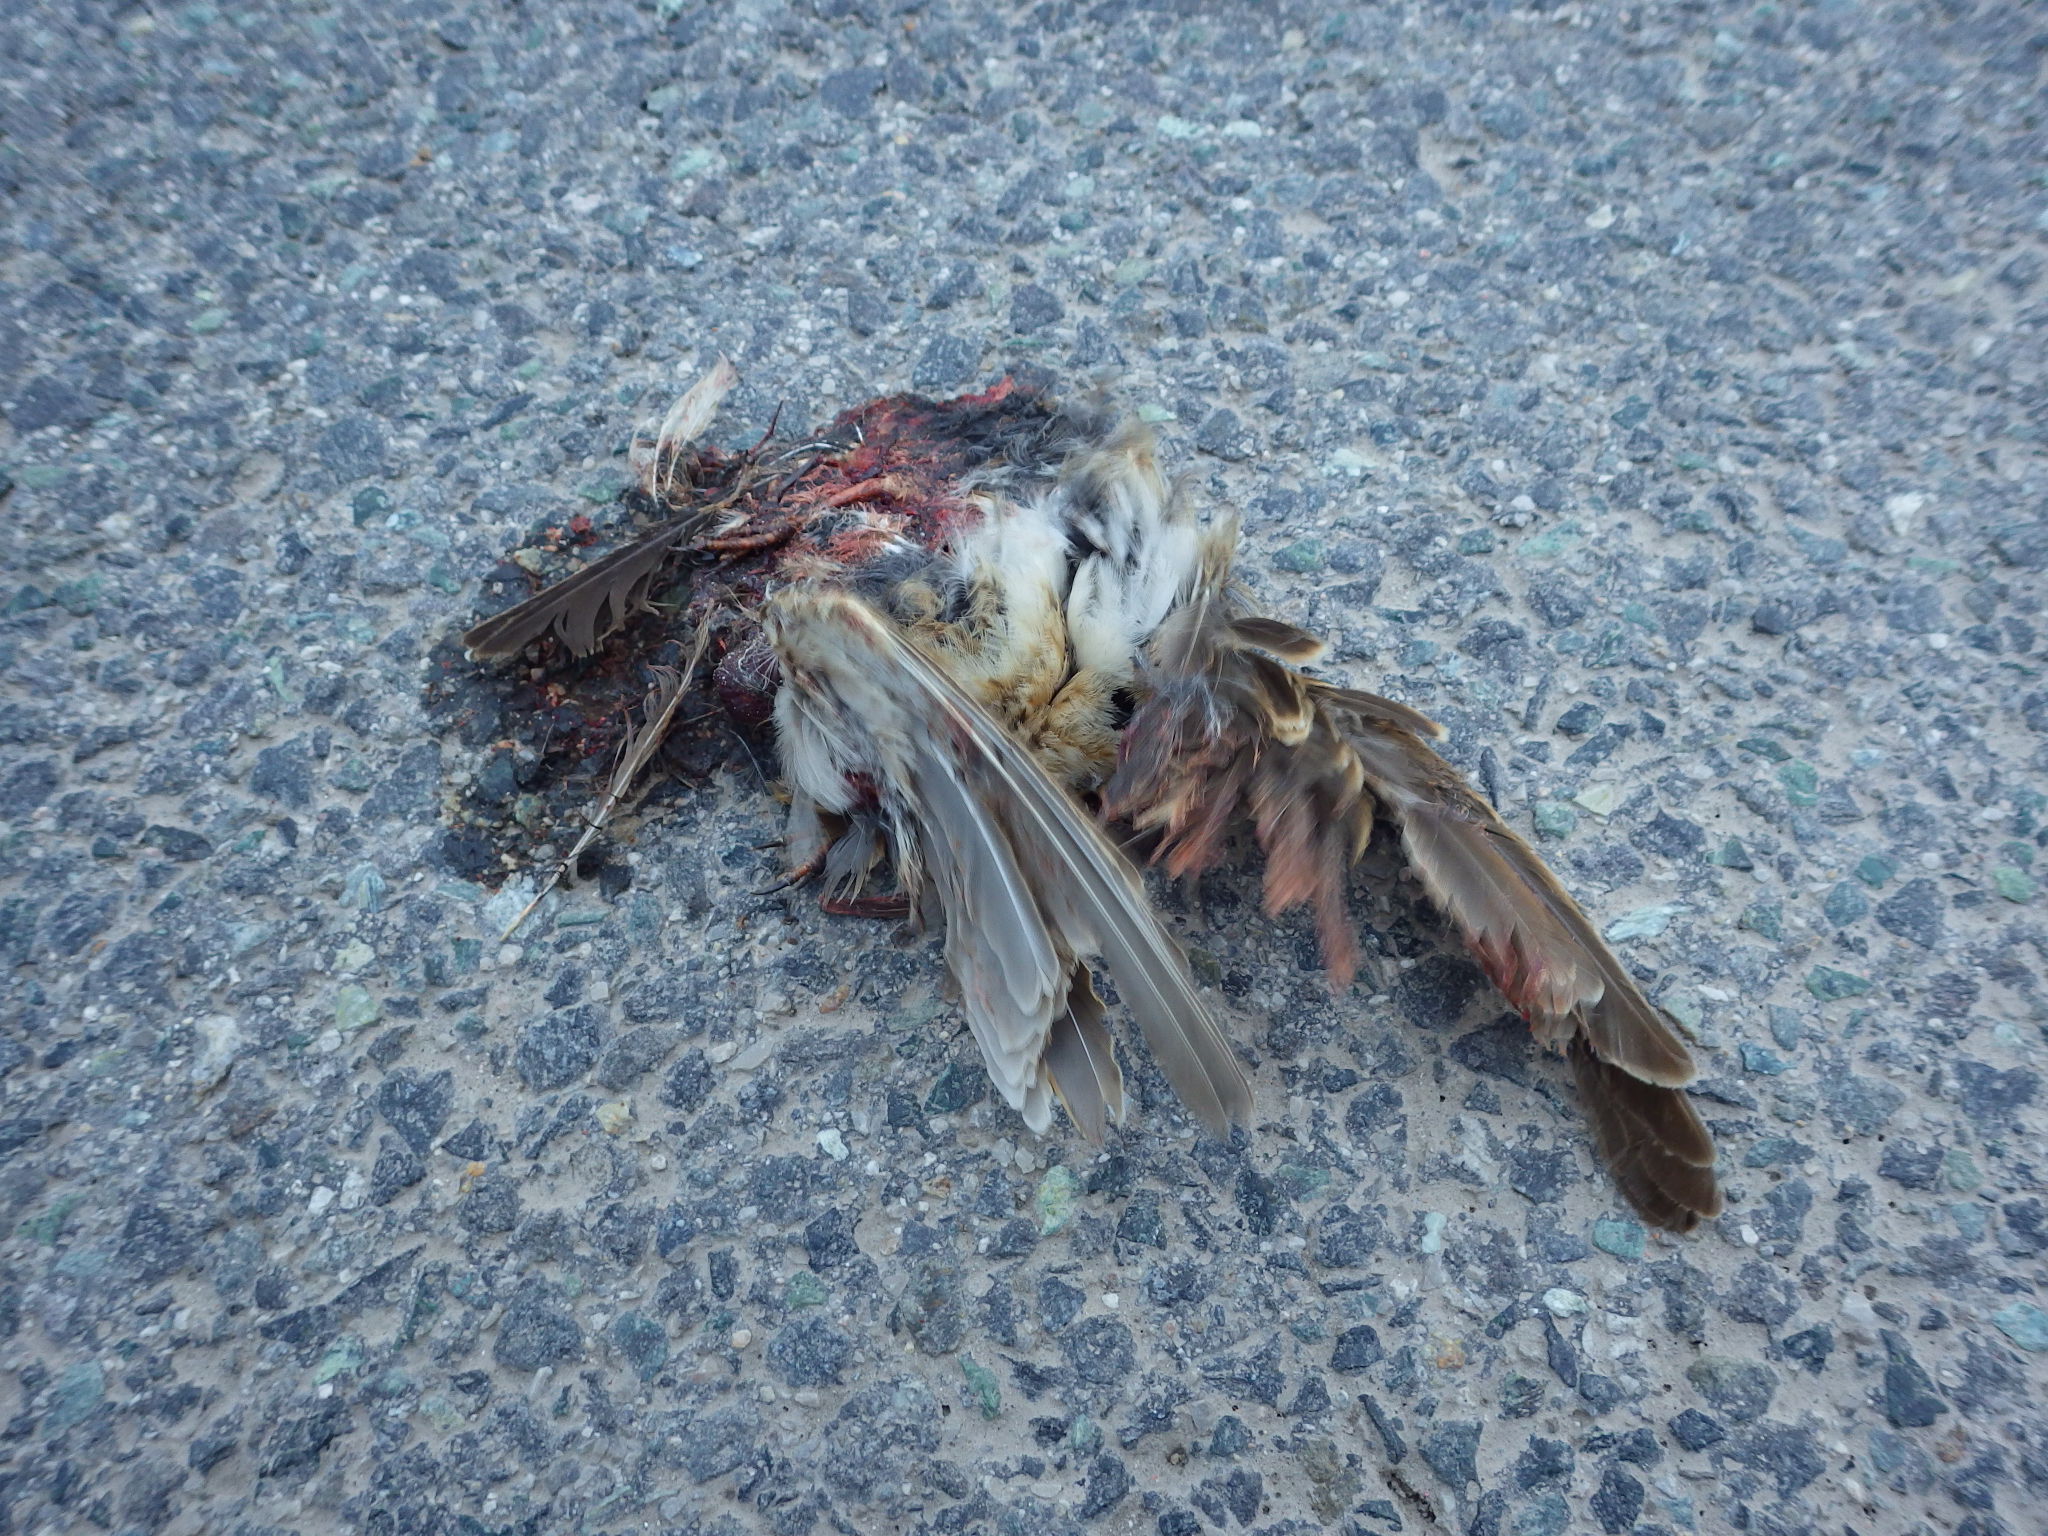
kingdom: Animalia
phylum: Chordata
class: Aves
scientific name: Aves
